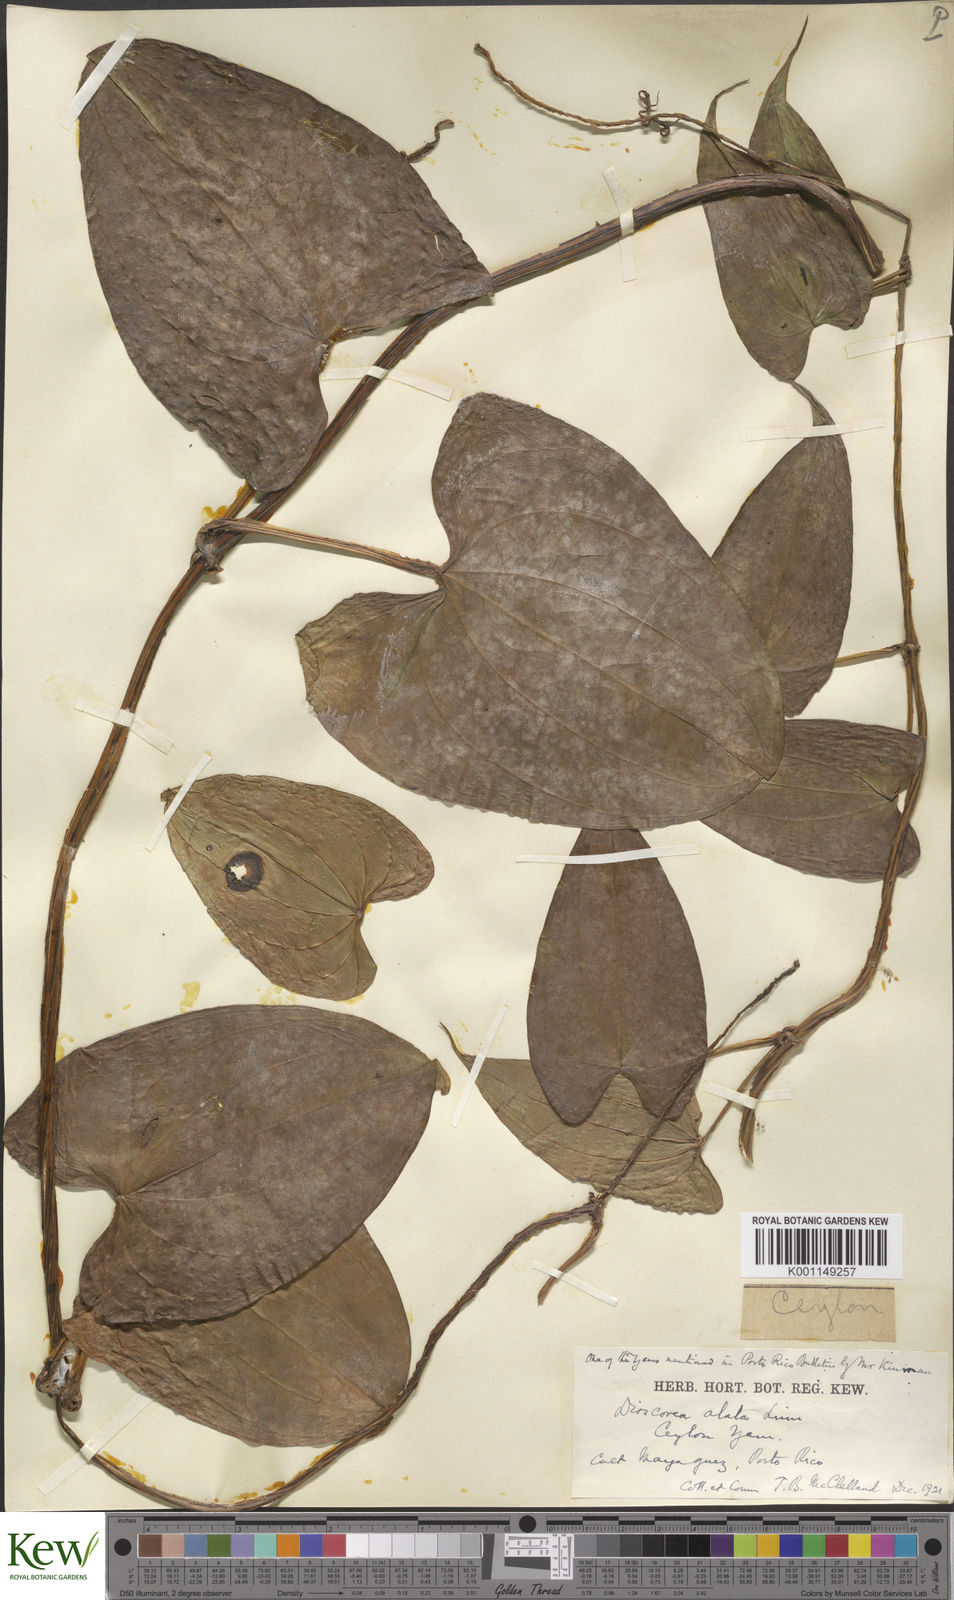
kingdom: Plantae
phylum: Tracheophyta
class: Liliopsida
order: Dioscoreales
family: Dioscoreaceae
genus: Dioscorea
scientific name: Dioscorea alata
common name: Water yam
